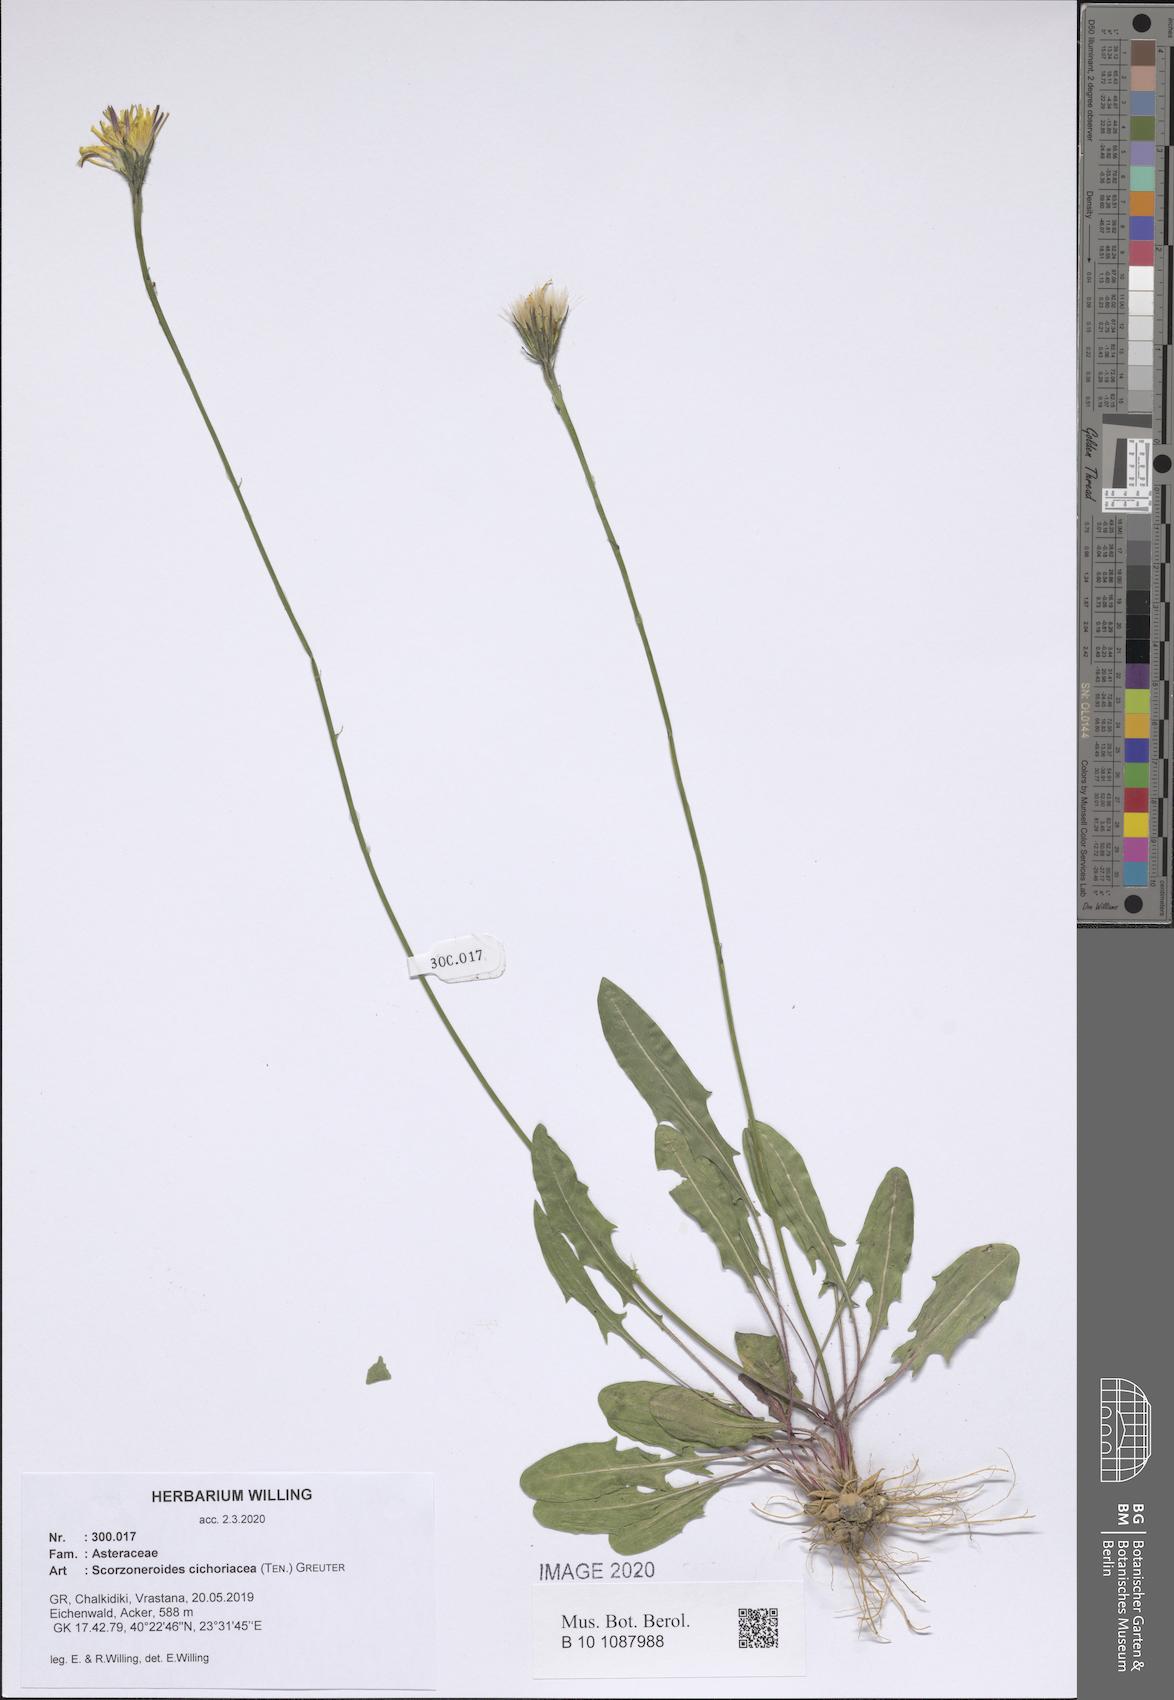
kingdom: Plantae
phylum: Tracheophyta
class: Magnoliopsida
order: Asterales
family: Asteraceae
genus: Scorzoneroides
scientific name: Scorzoneroides cichoriacea
